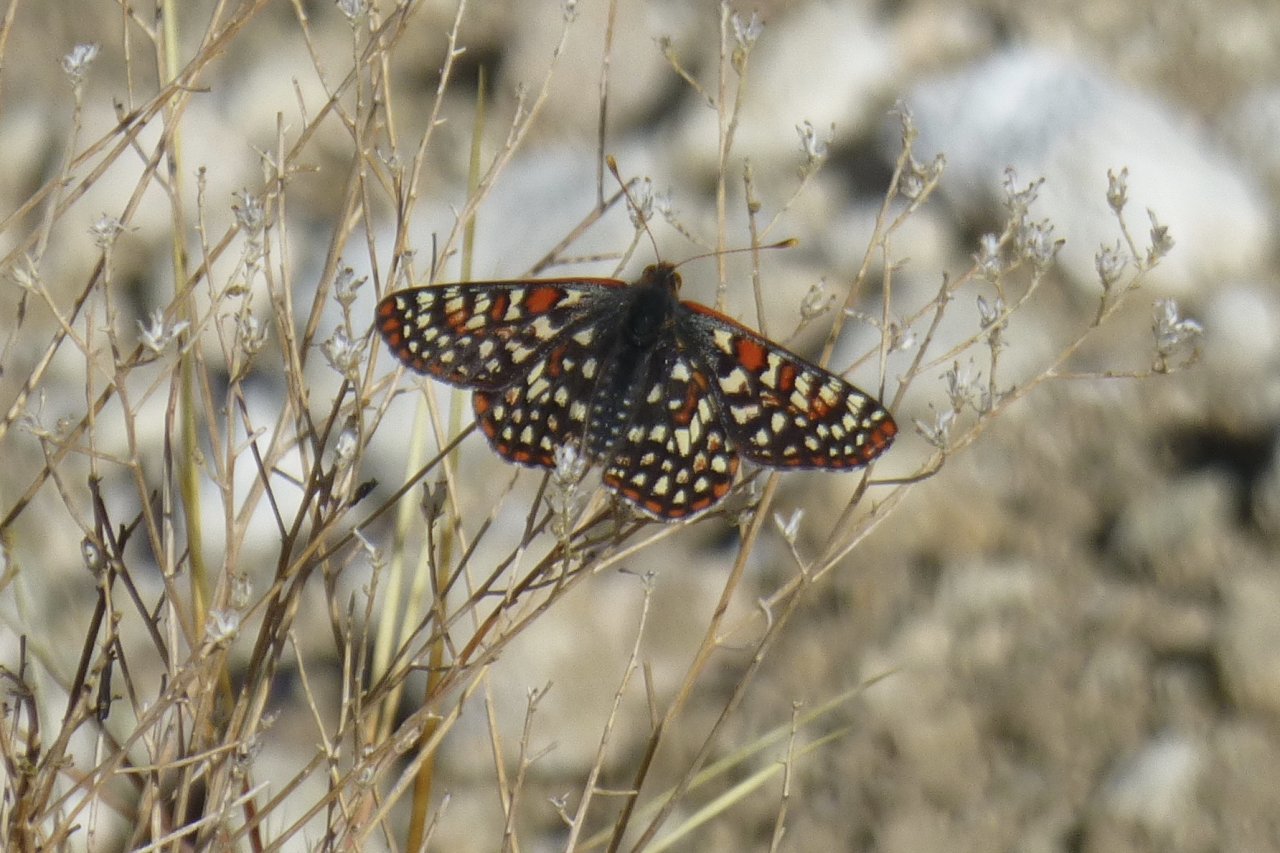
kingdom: Animalia
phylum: Arthropoda
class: Insecta
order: Lepidoptera
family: Nymphalidae
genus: Occidryas
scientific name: Occidryas chalcedona
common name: Chalcedon Checkerspot
